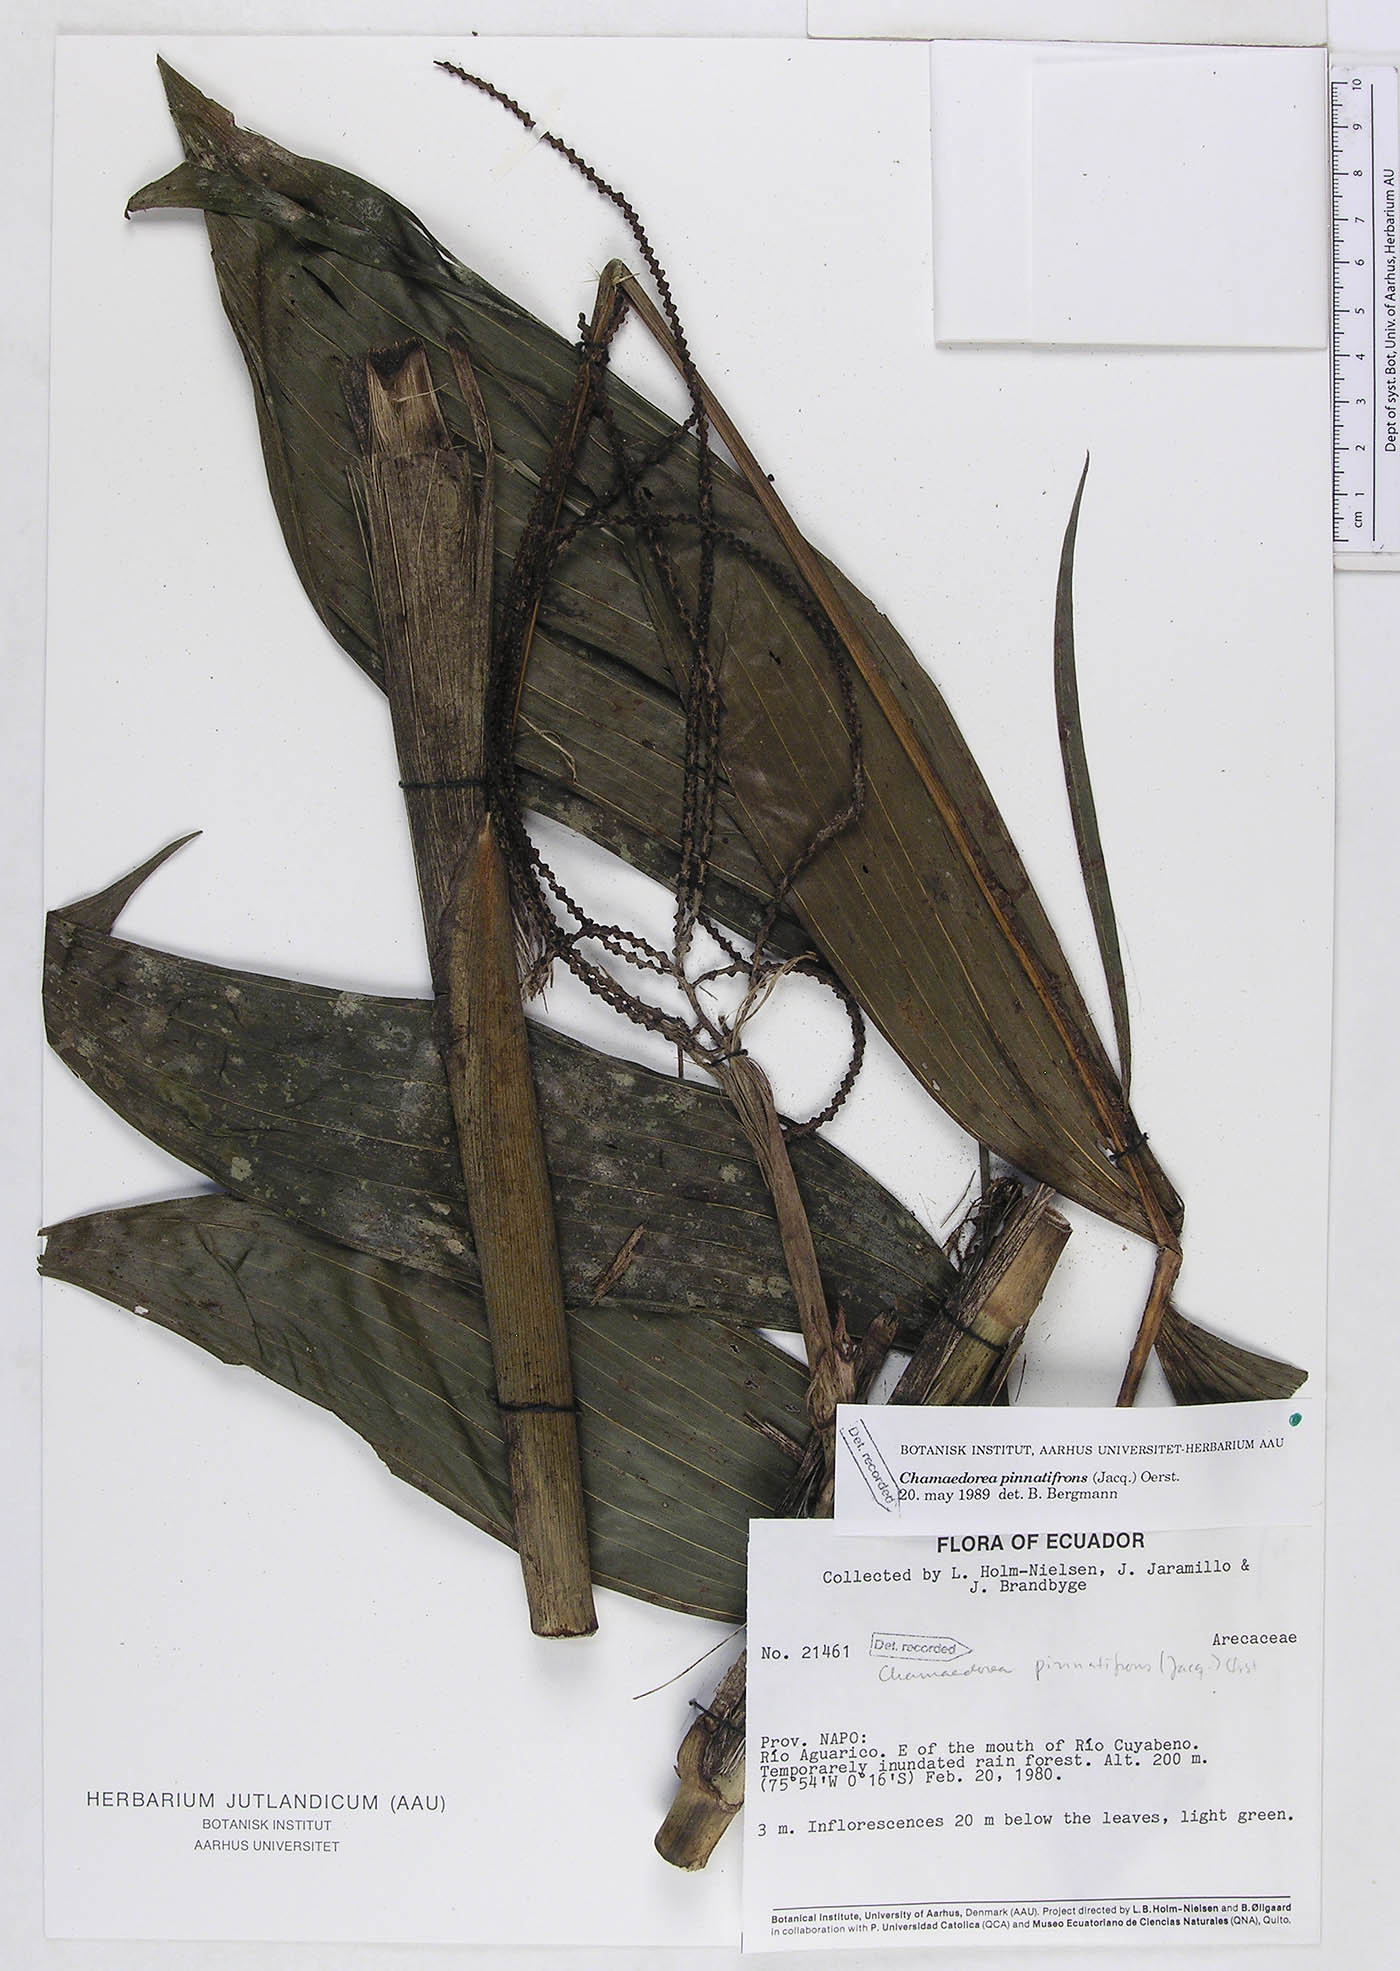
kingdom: Plantae
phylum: Tracheophyta
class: Liliopsida
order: Arecales
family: Arecaceae
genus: Chamaedorea
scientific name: Chamaedorea pinnatifrons
